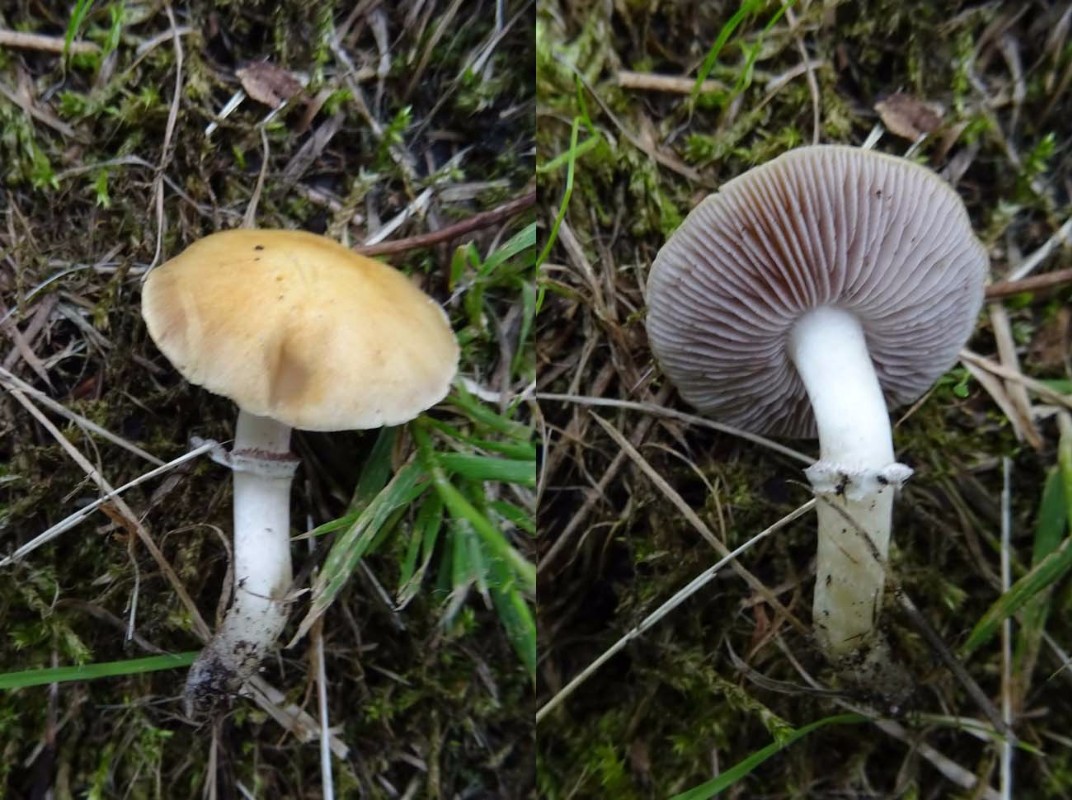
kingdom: Fungi
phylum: Basidiomycota
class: Agaricomycetes
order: Agaricales
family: Hymenogastraceae
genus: Psilocybe
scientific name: Psilocybe coronilla
